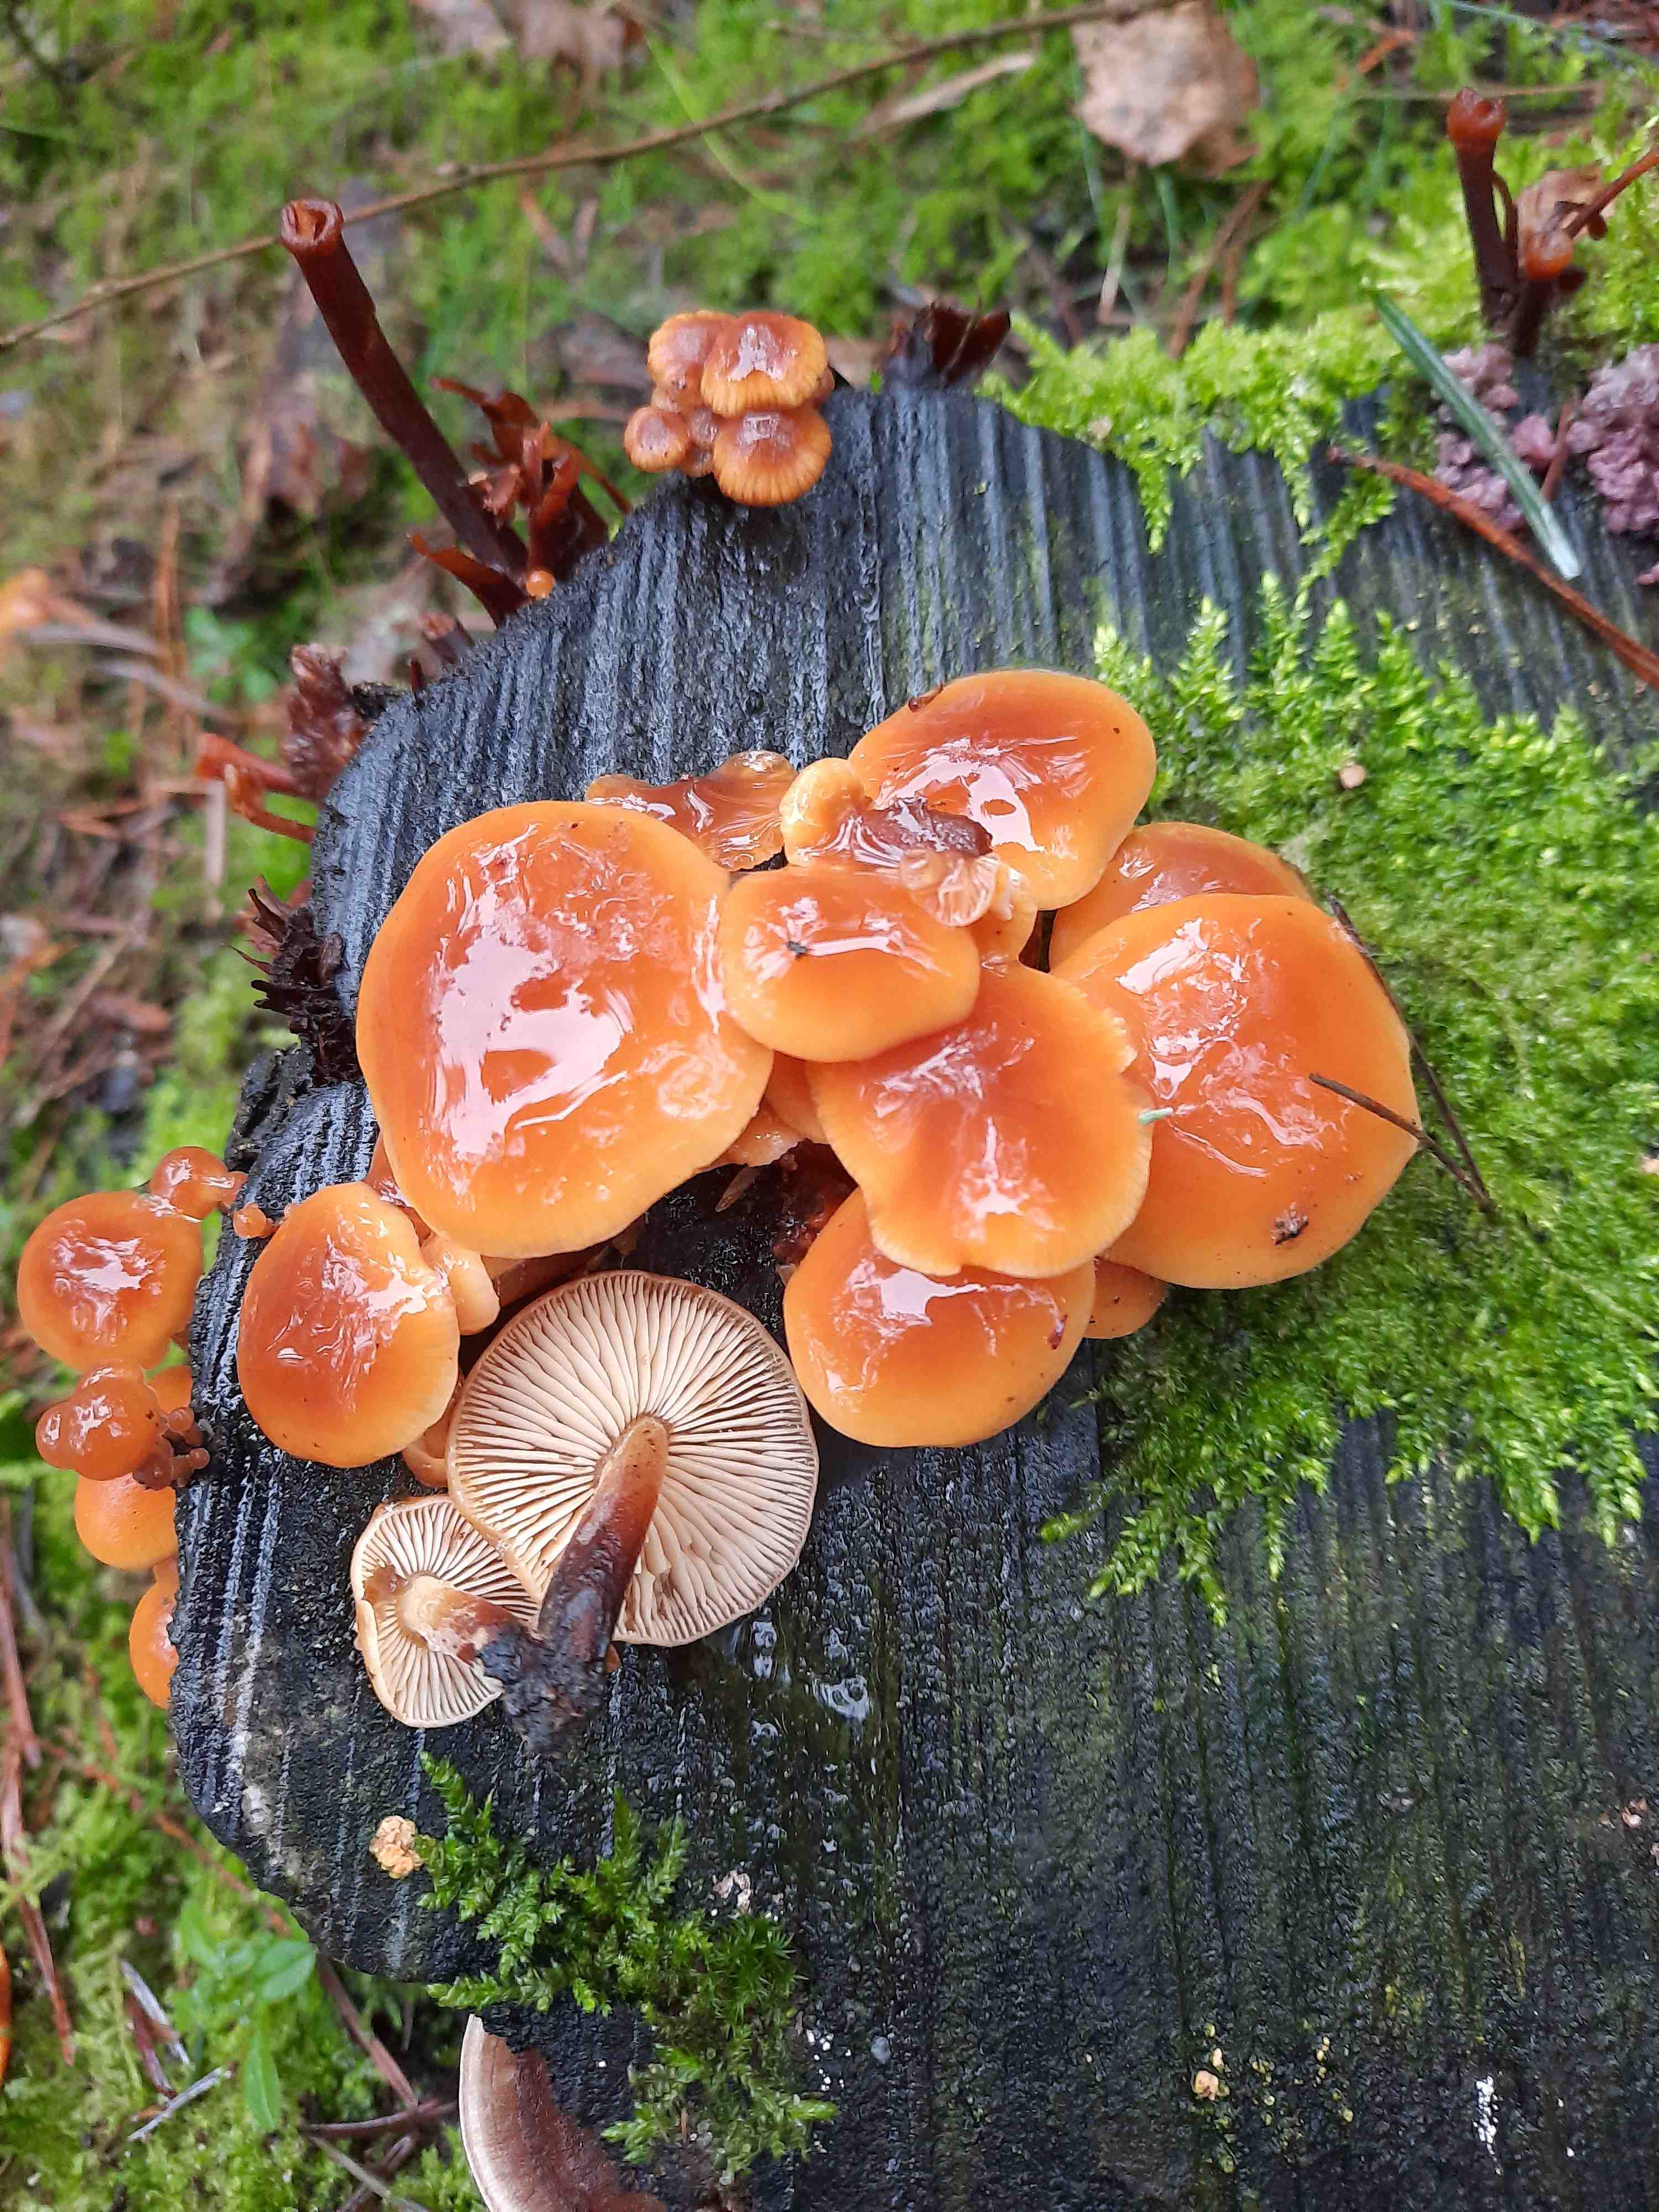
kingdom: Fungi
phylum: Basidiomycota
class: Agaricomycetes
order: Agaricales
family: Physalacriaceae
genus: Flammulina
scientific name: Flammulina velutipes
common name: gul fløjlsfod
